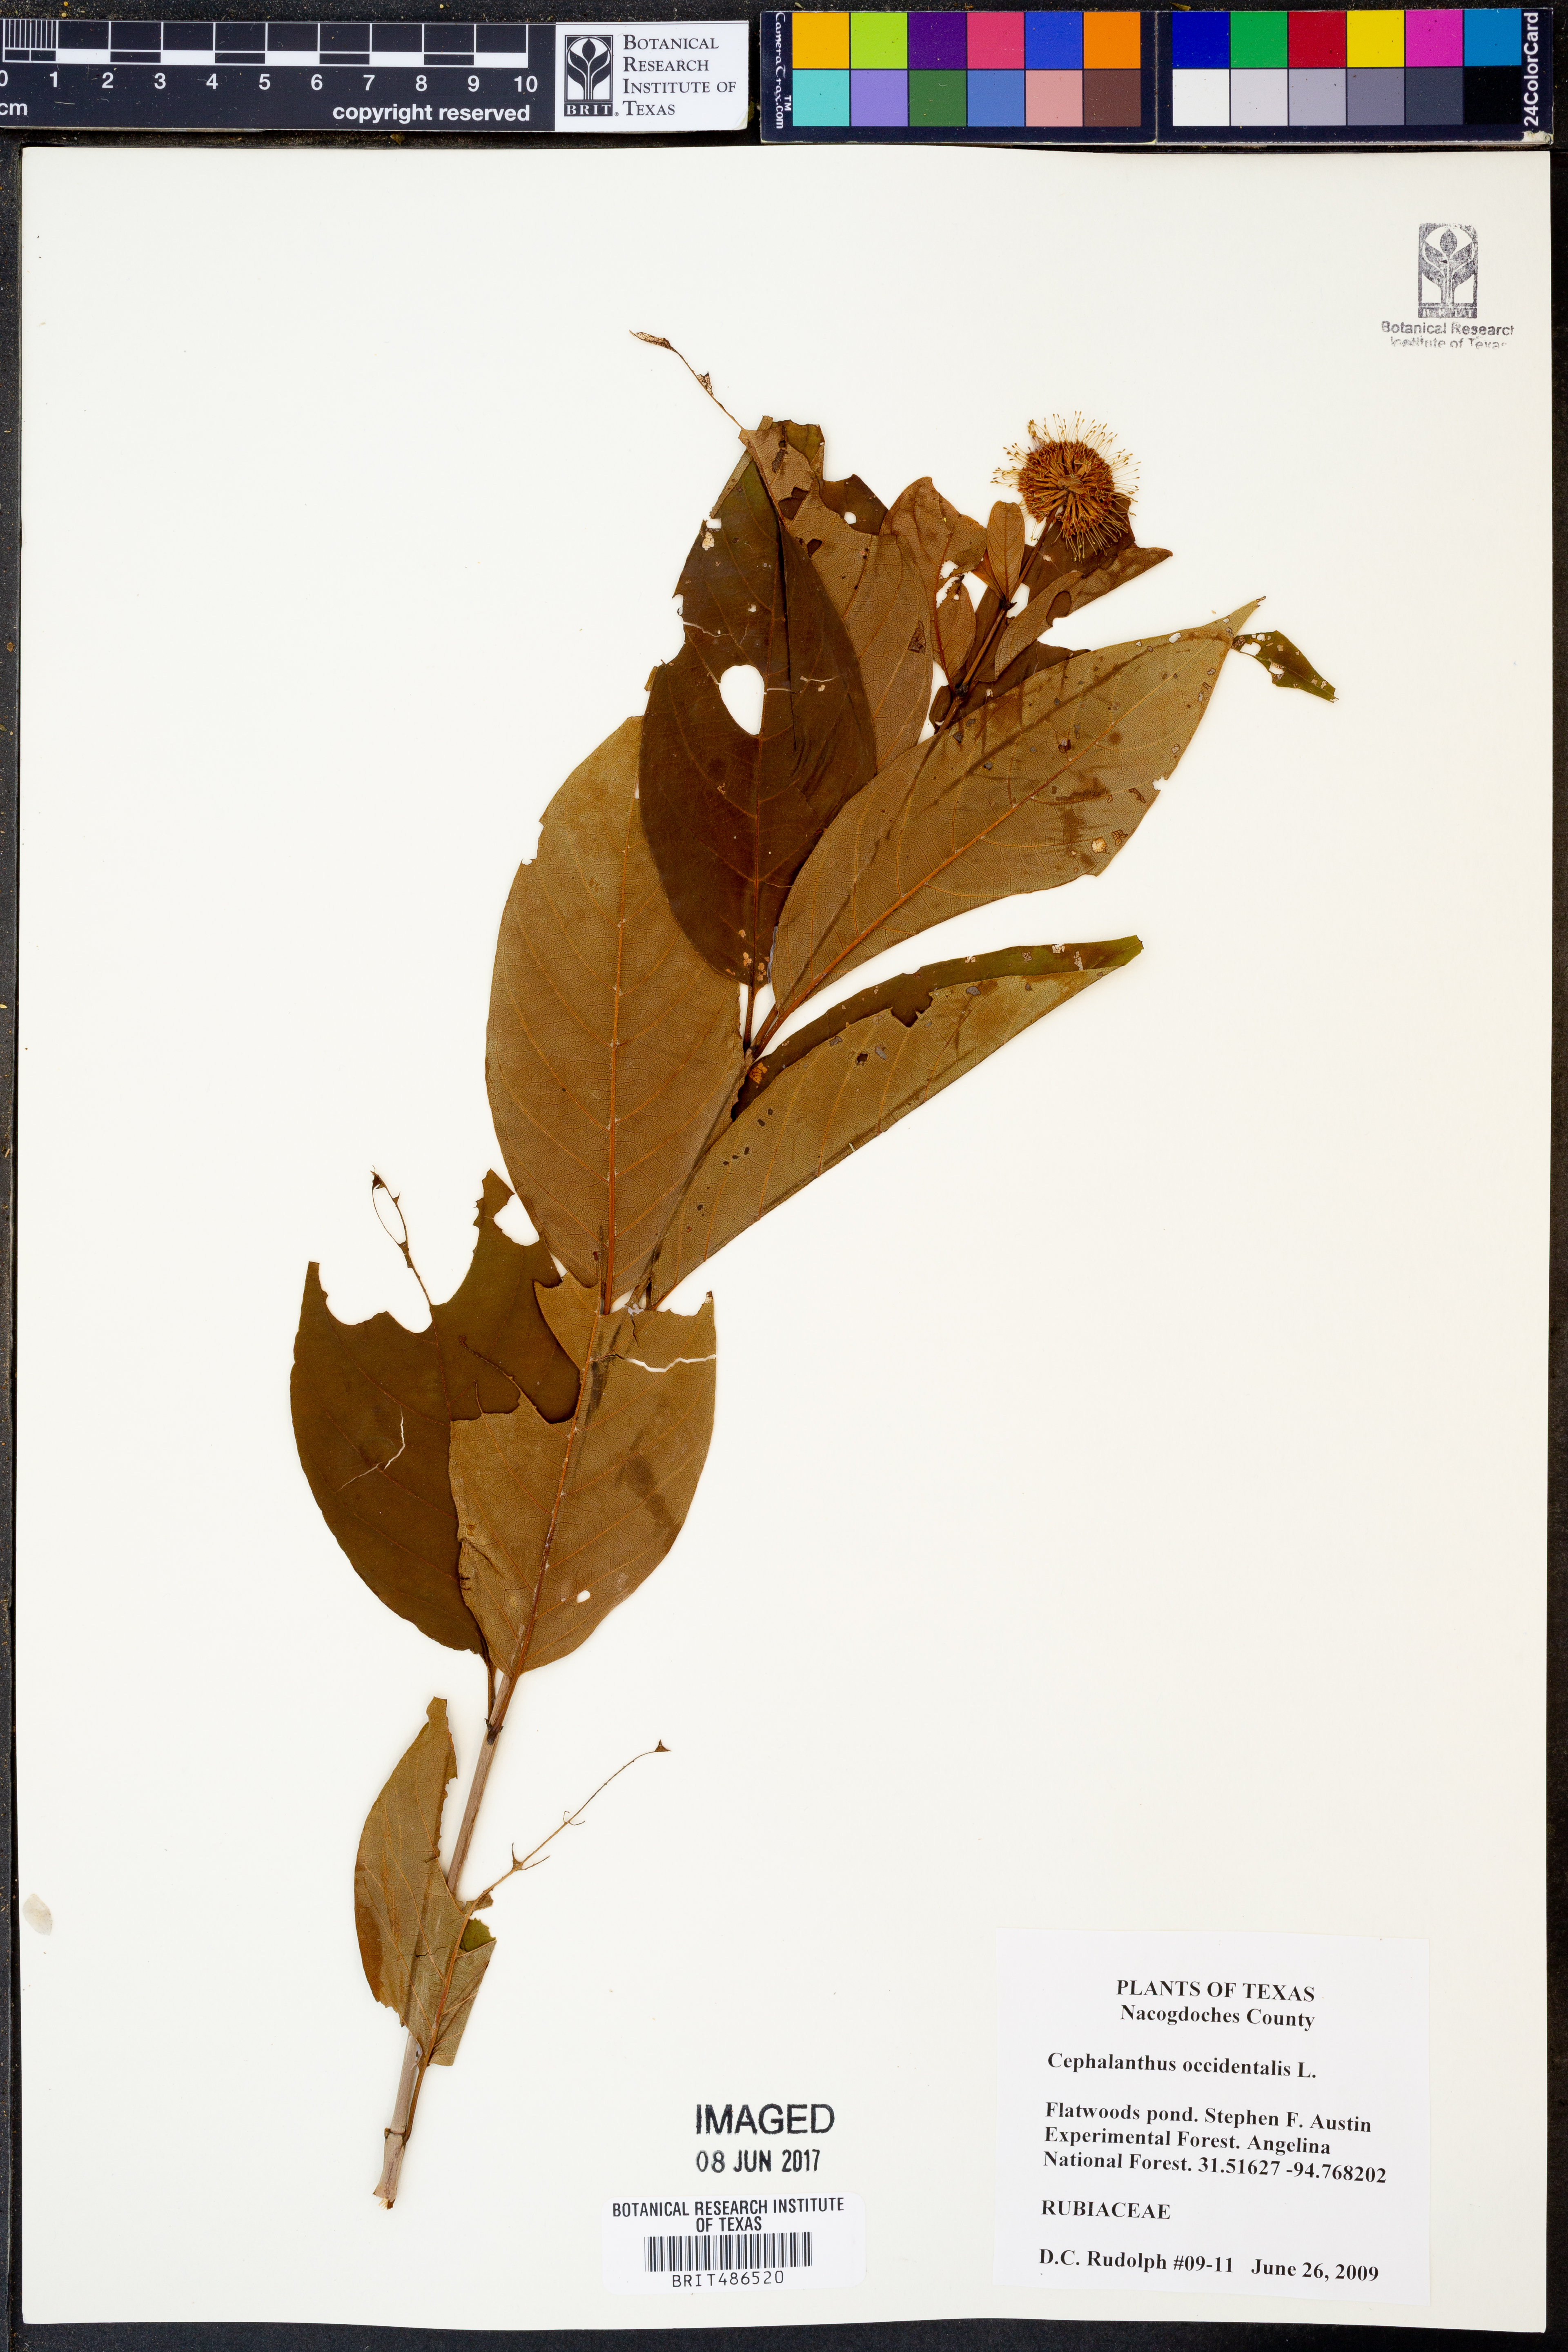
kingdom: Plantae
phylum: Tracheophyta
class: Magnoliopsida
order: Gentianales
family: Rubiaceae
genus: Cephalanthus
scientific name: Cephalanthus occidentalis
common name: Button-willow
